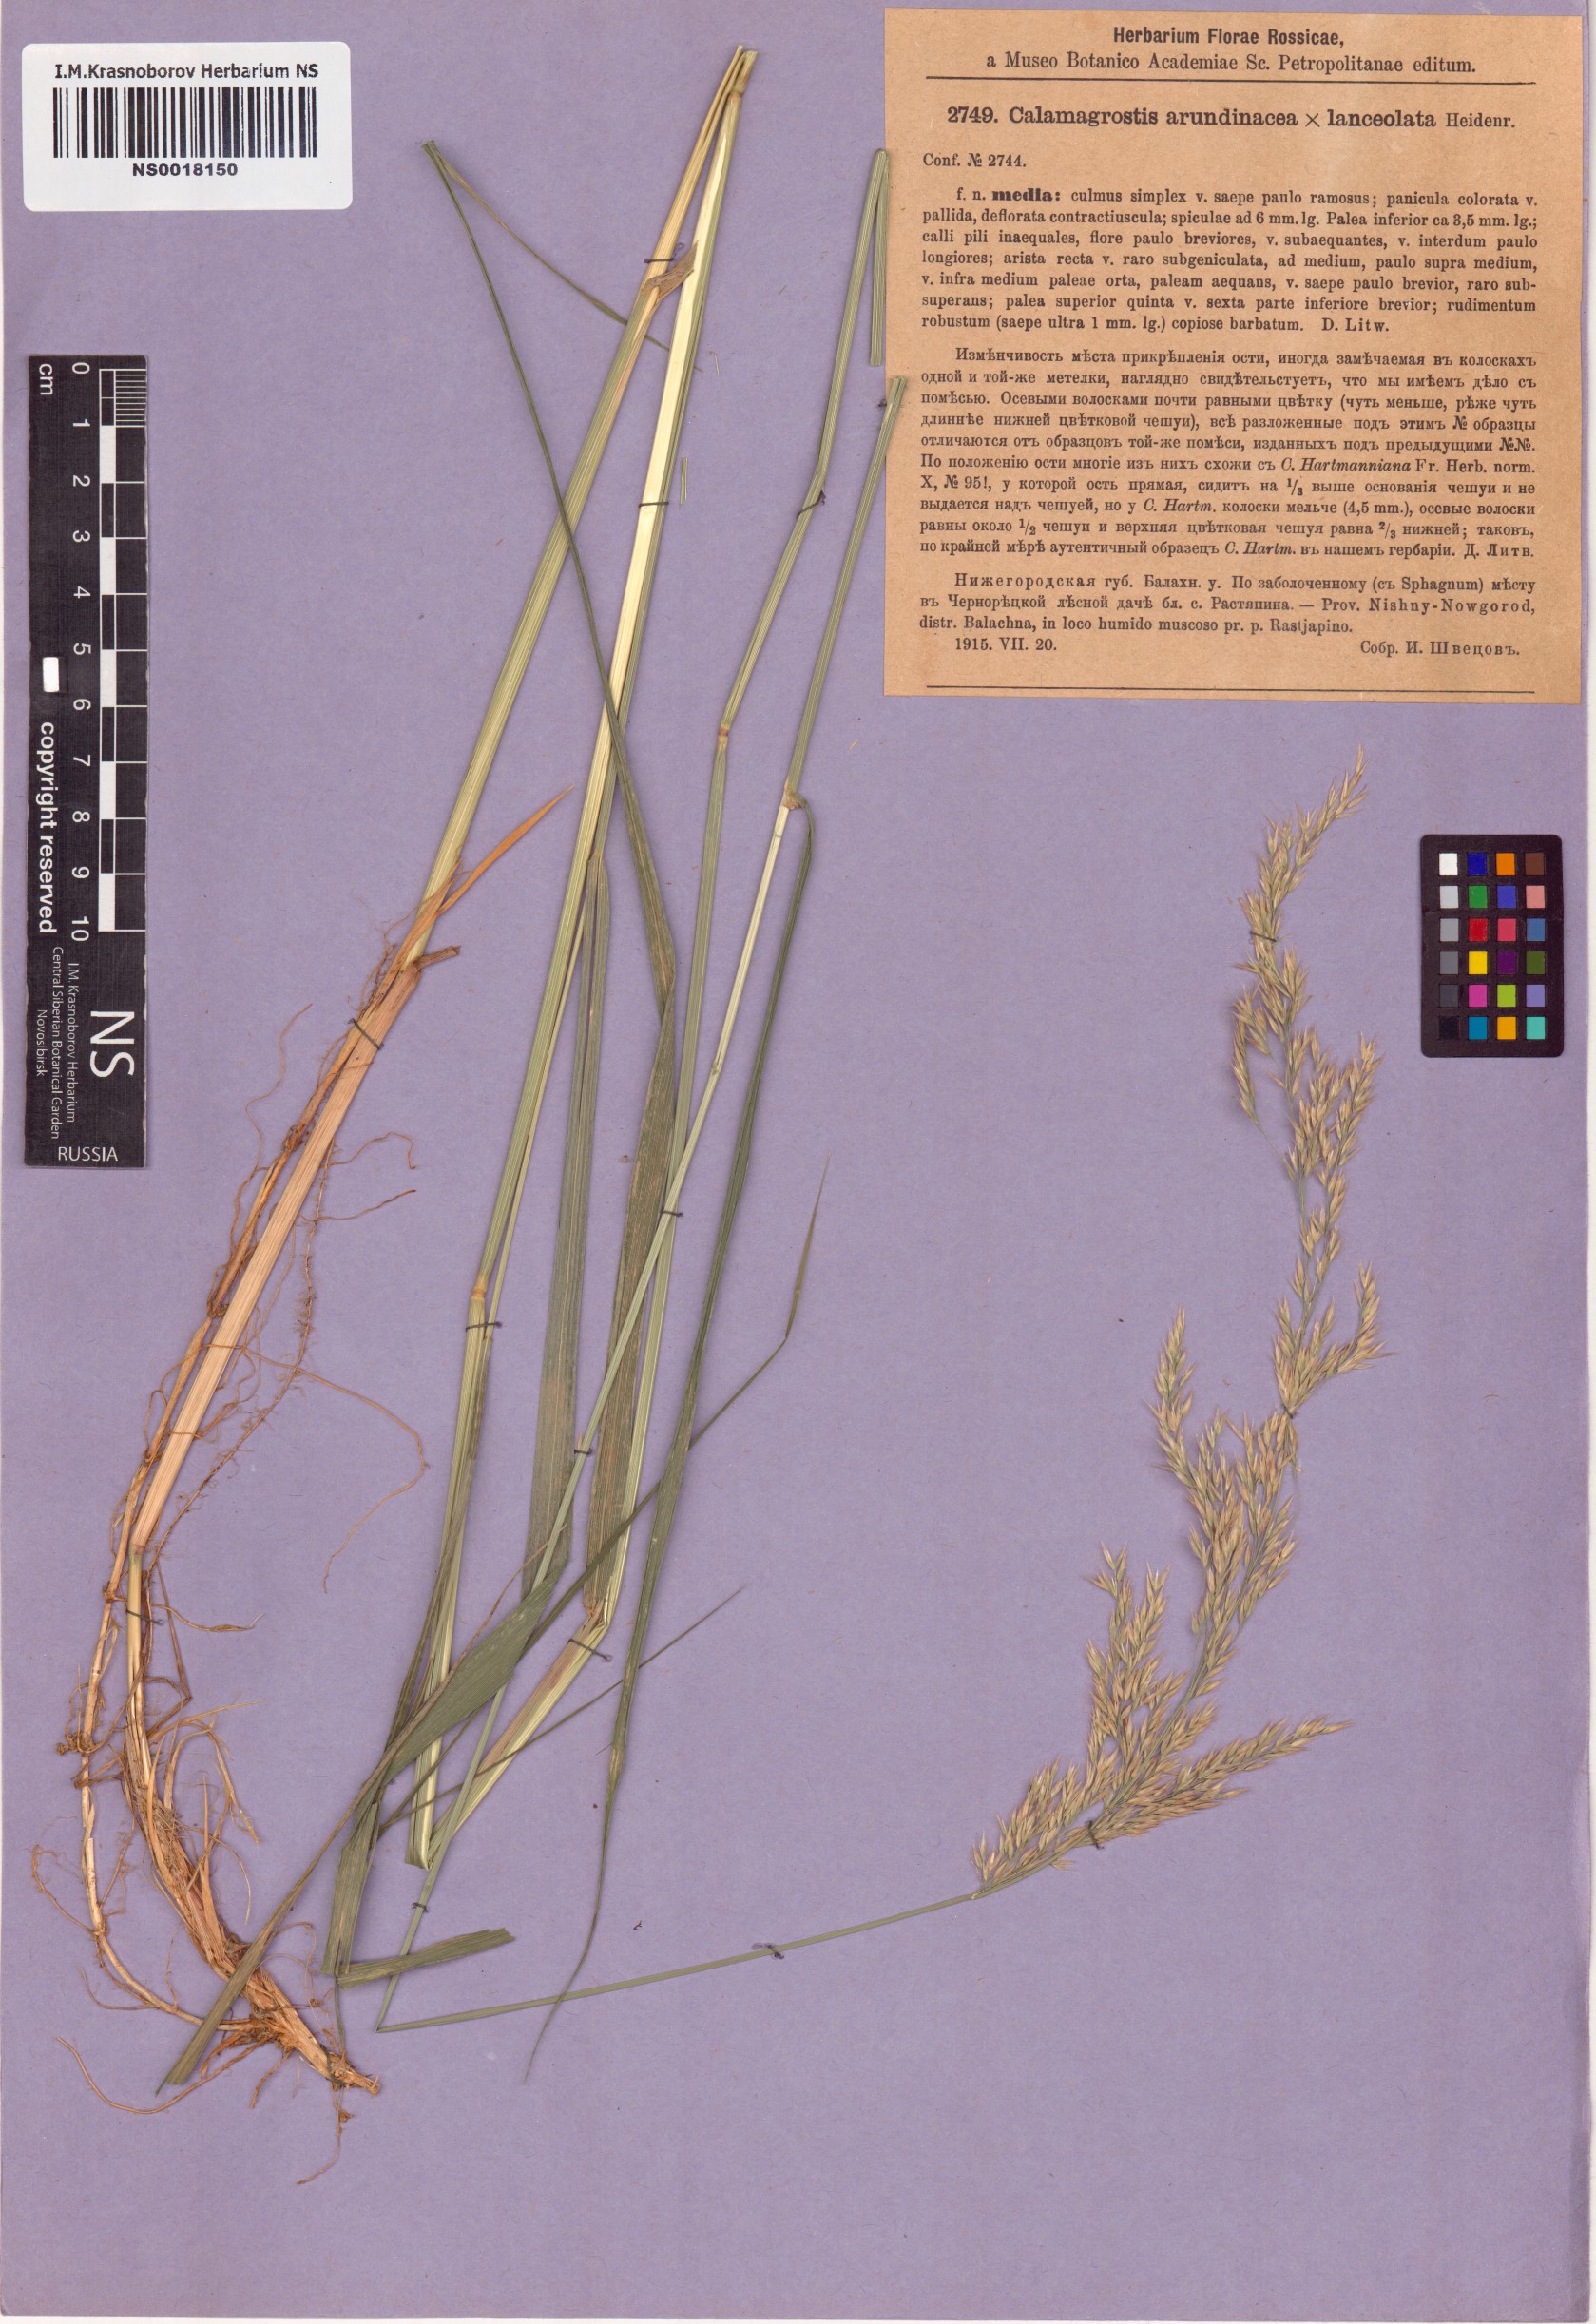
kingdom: Plantae
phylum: Tracheophyta
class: Liliopsida
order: Poales
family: Poaceae
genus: Calamagrostis
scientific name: Calamagrostis arundinacea
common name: Metskastik
